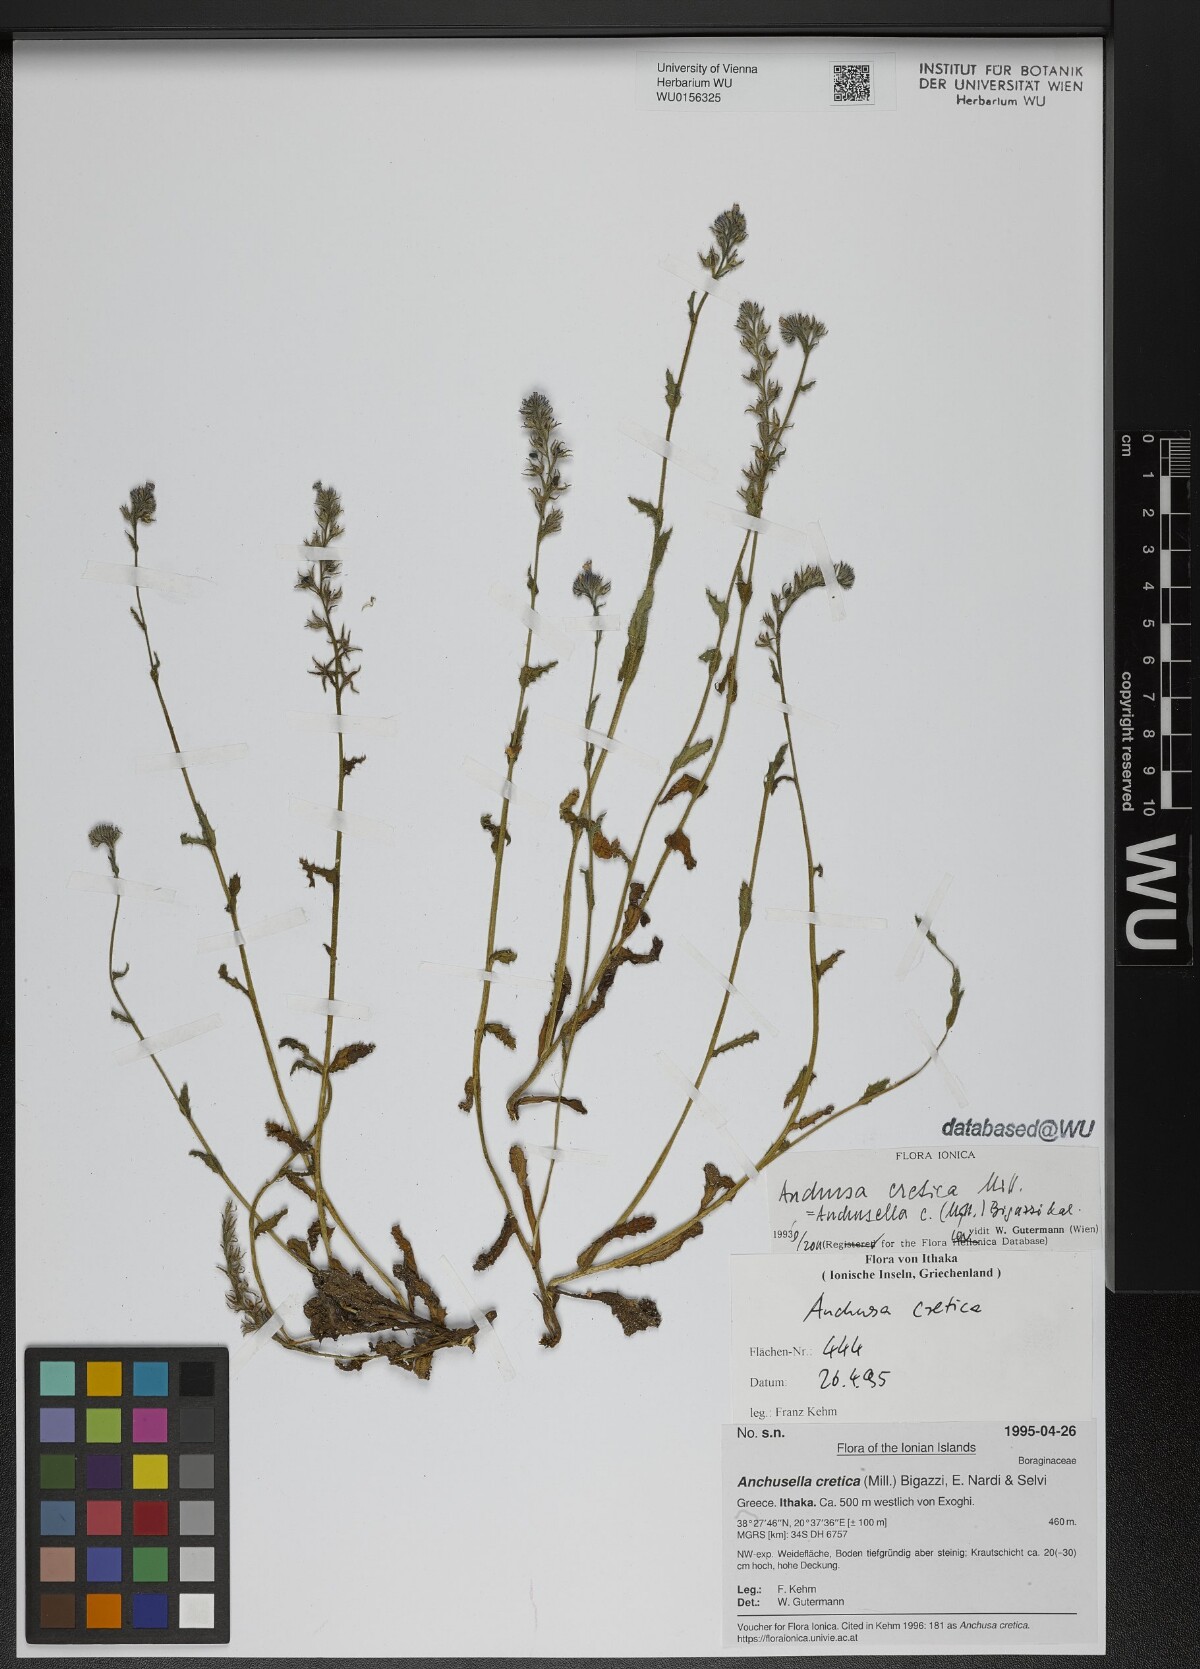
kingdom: Plantae
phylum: Tracheophyta
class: Magnoliopsida
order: Boraginales
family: Boraginaceae
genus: Anchusella
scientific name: Anchusella cretica
